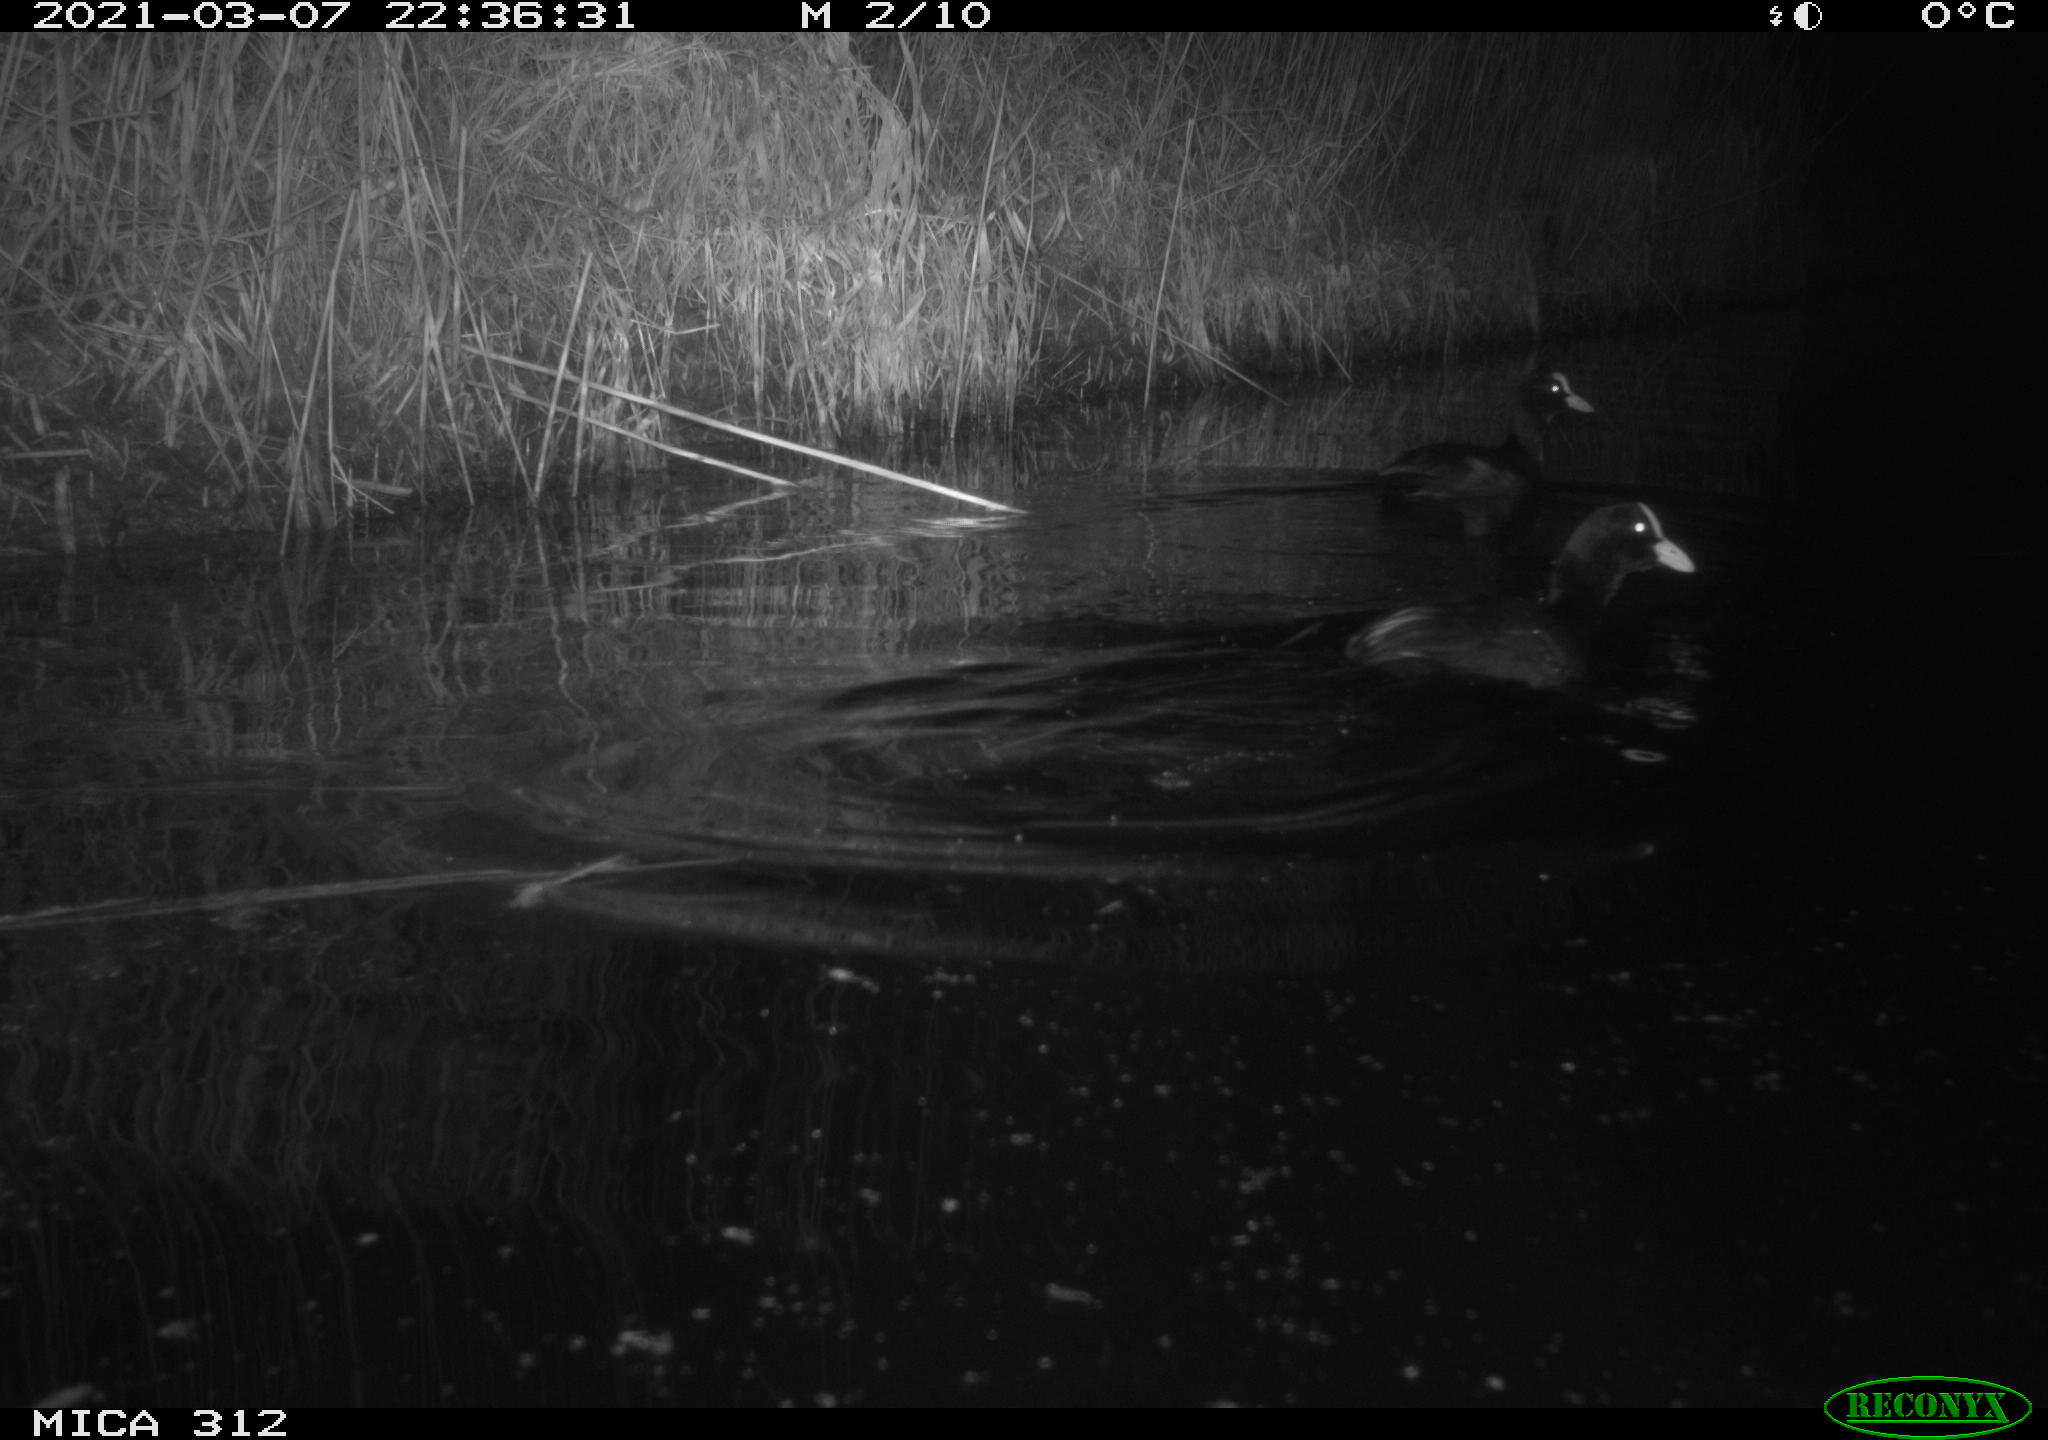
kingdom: Animalia
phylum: Chordata
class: Mammalia
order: Rodentia
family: Cricetidae
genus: Ondatra
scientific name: Ondatra zibethicus
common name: Muskrat
